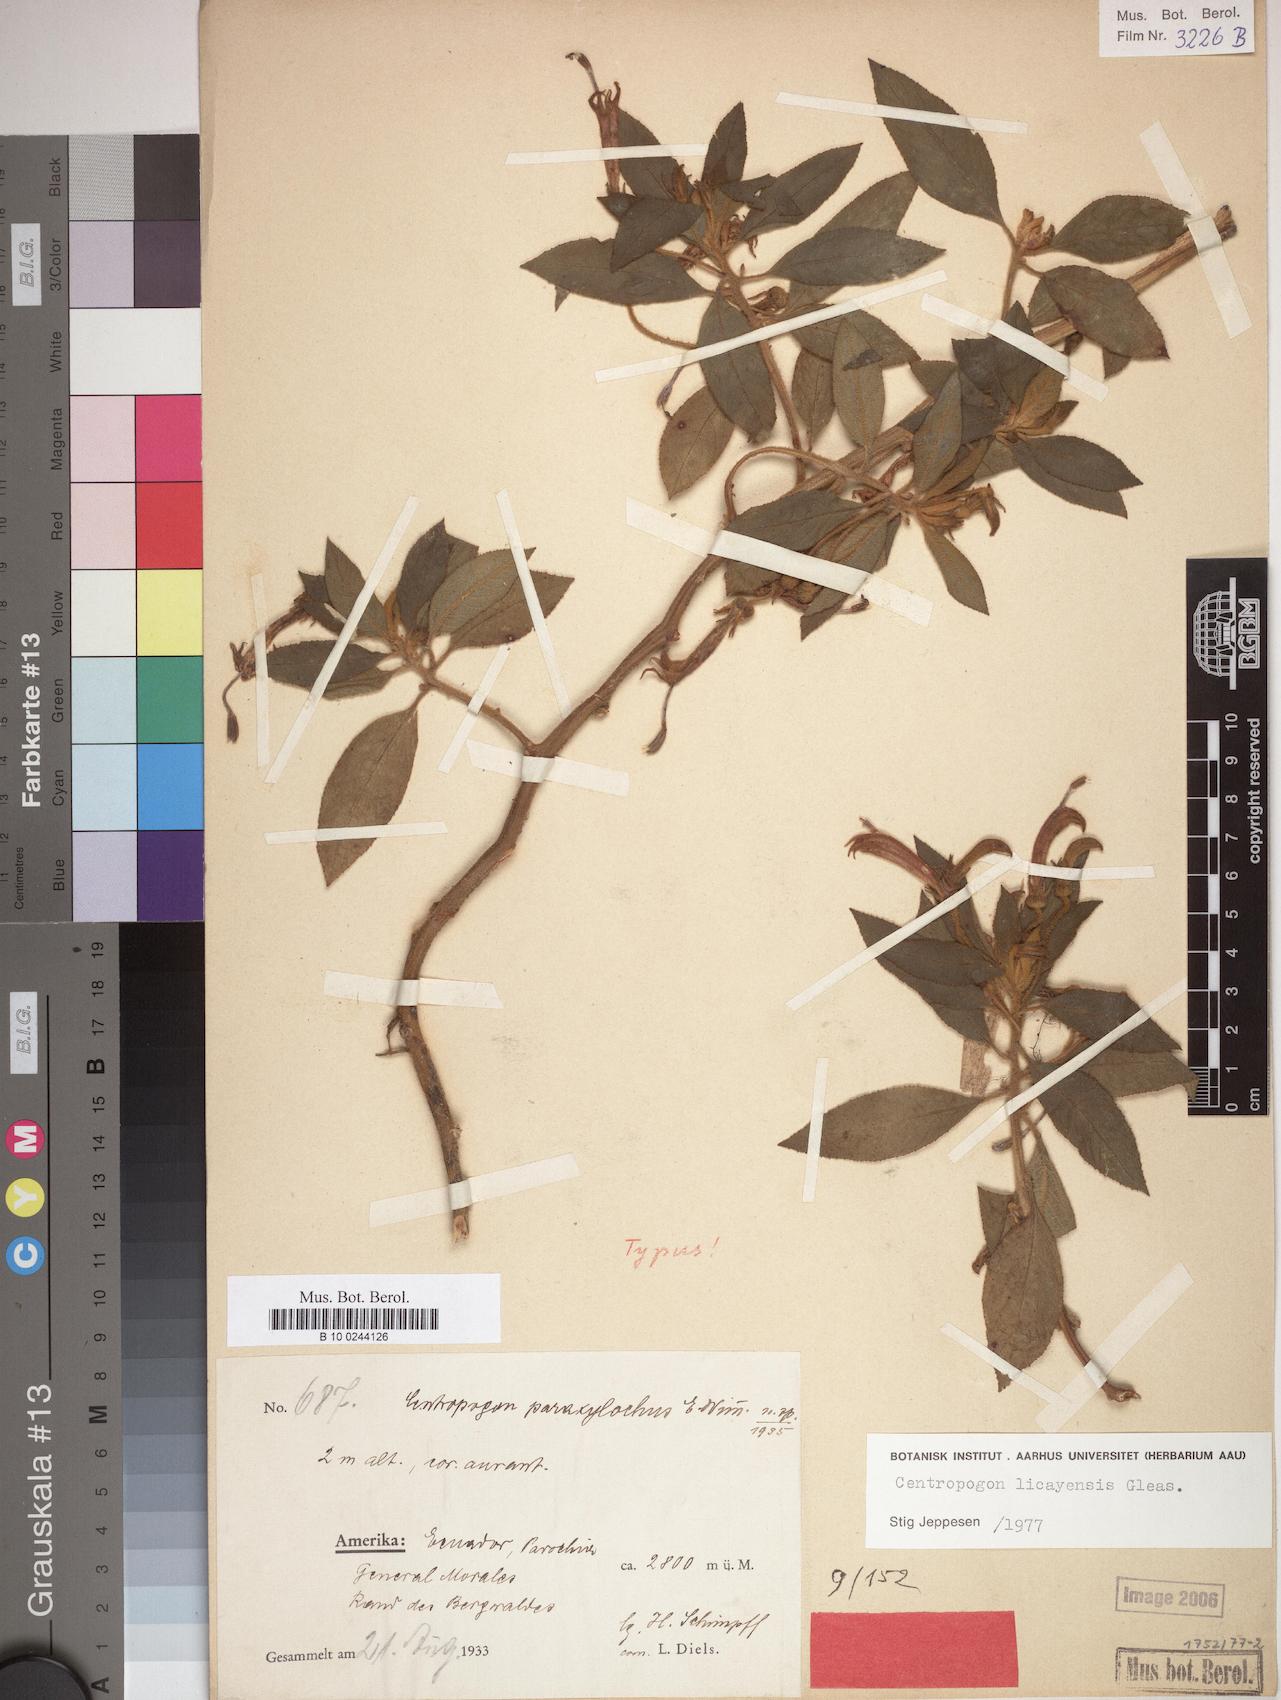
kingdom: Plantae
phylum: Tracheophyta
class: Magnoliopsida
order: Asterales
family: Campanulaceae
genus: Centropogon
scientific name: Centropogon licayensis
